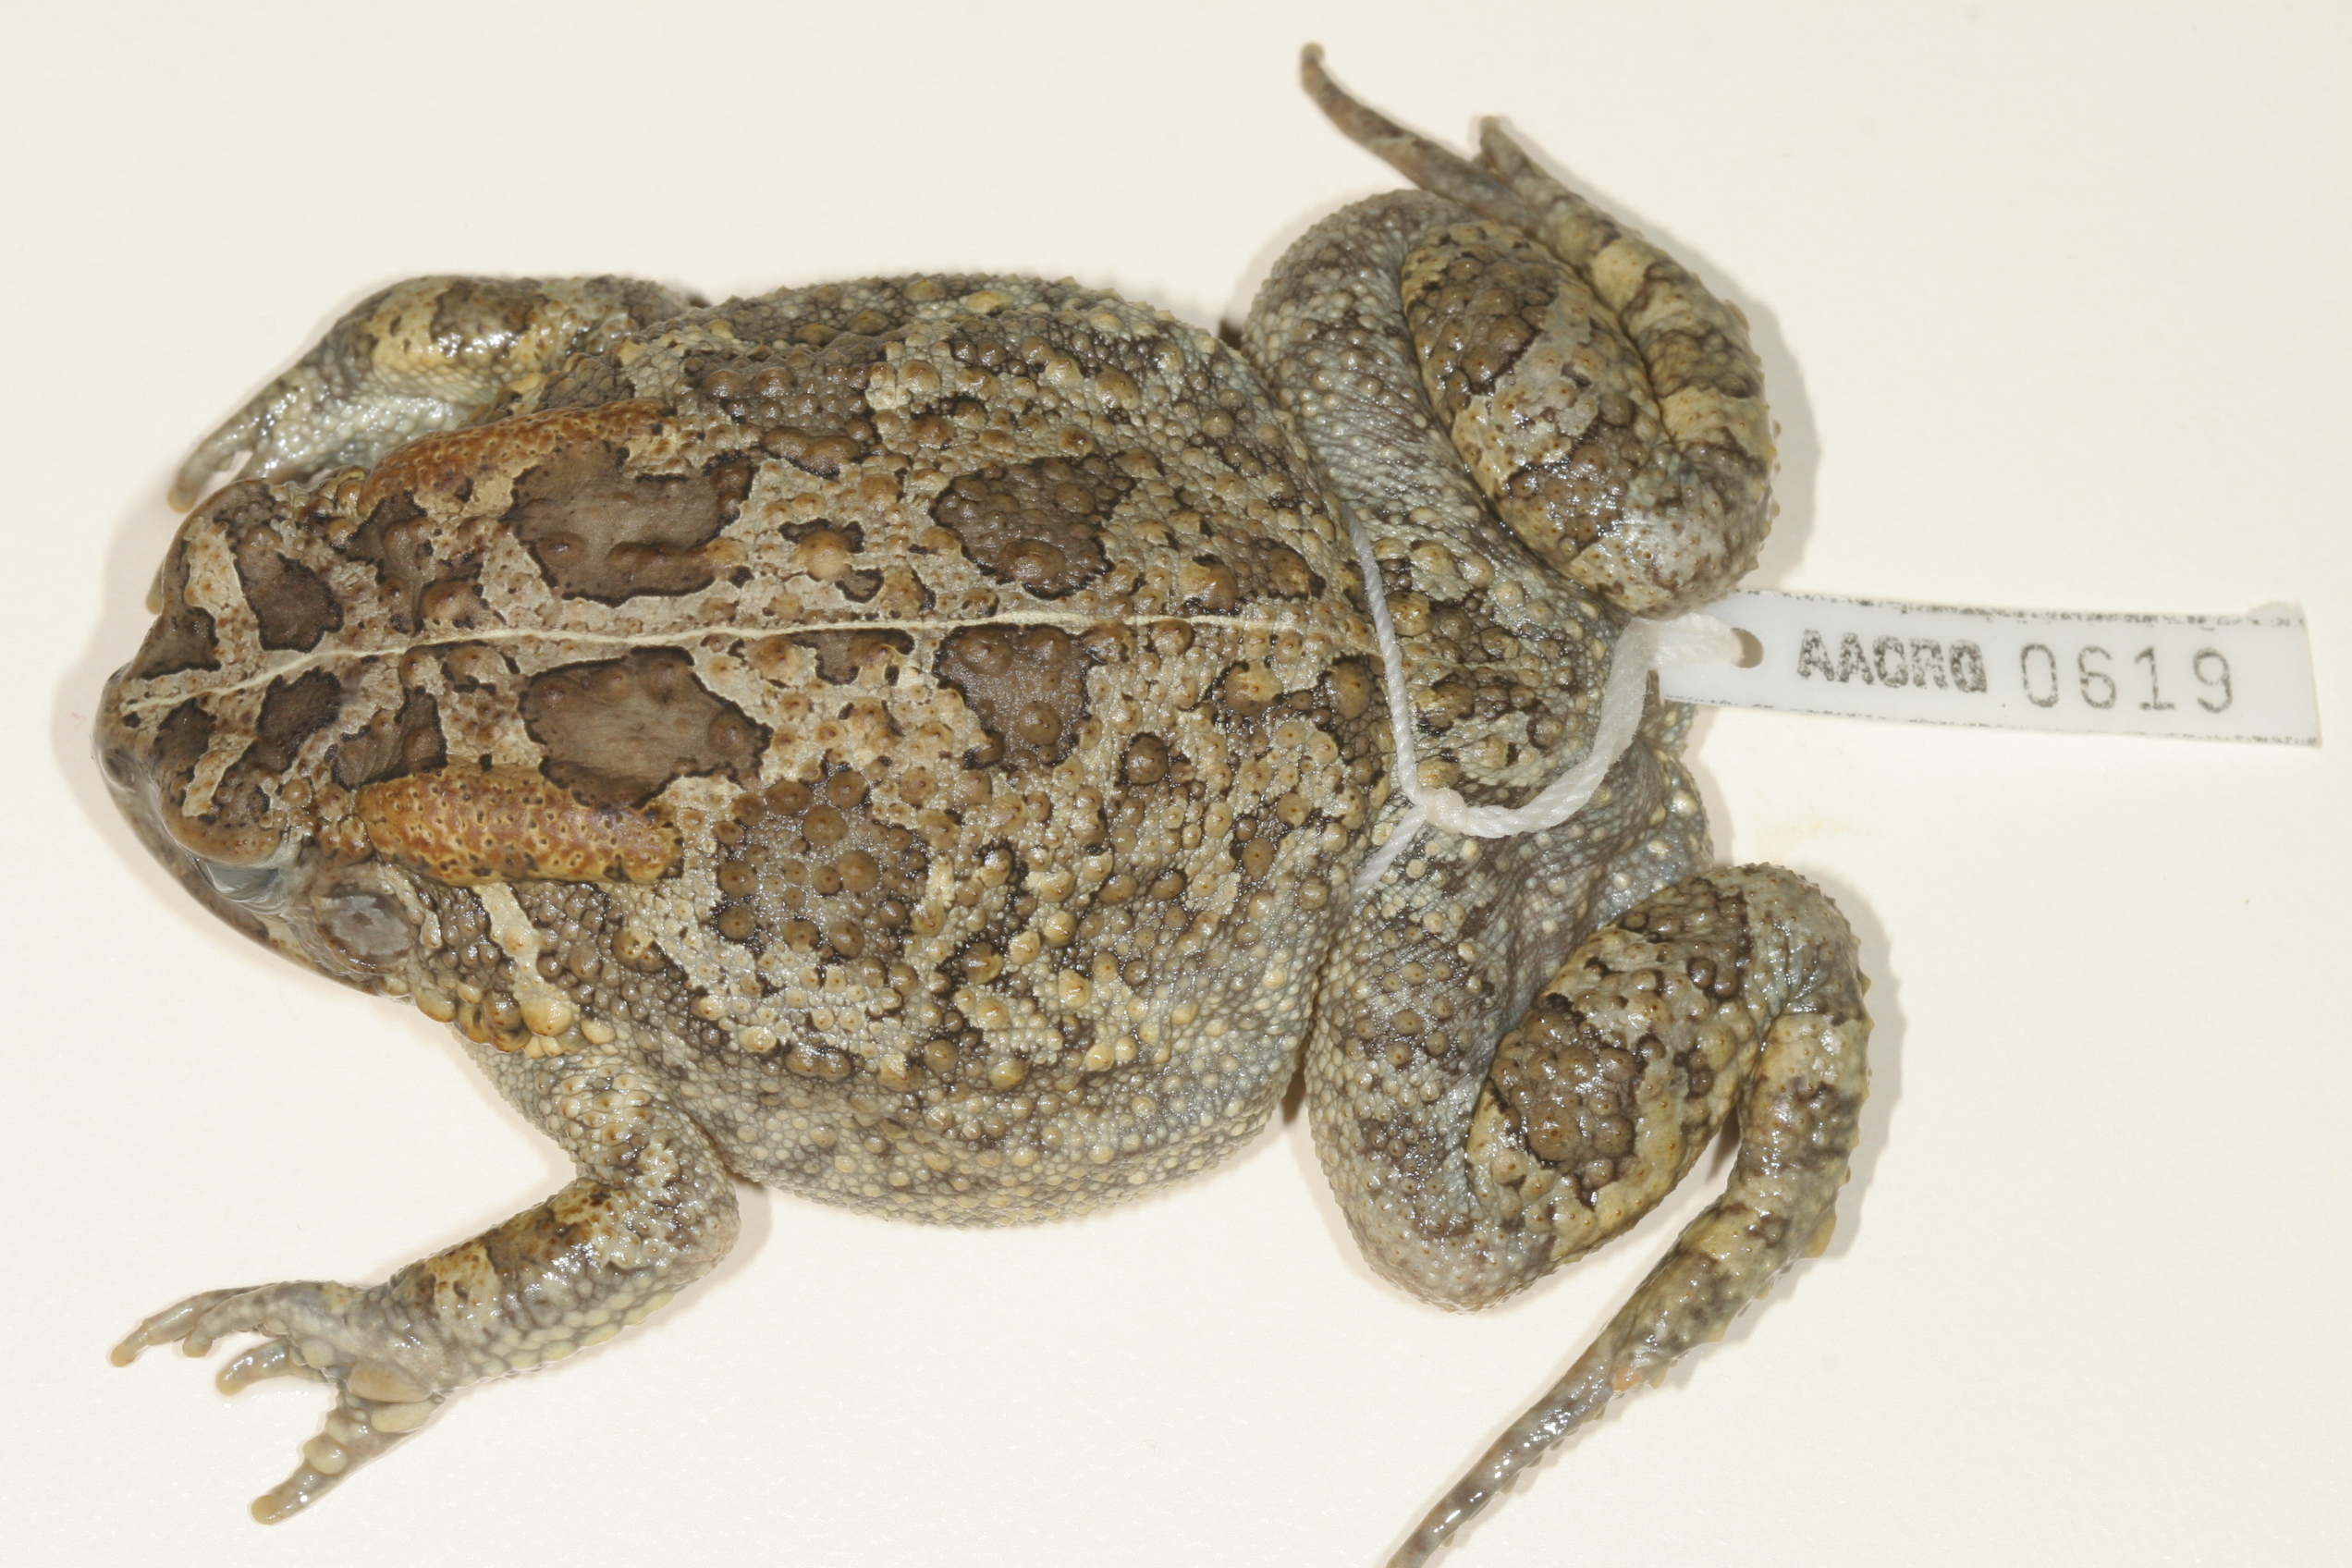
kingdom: Animalia
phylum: Chordata
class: Amphibia
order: Anura
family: Bufonidae
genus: Sclerophrys
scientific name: Sclerophrys gutturalis
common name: African common toad
